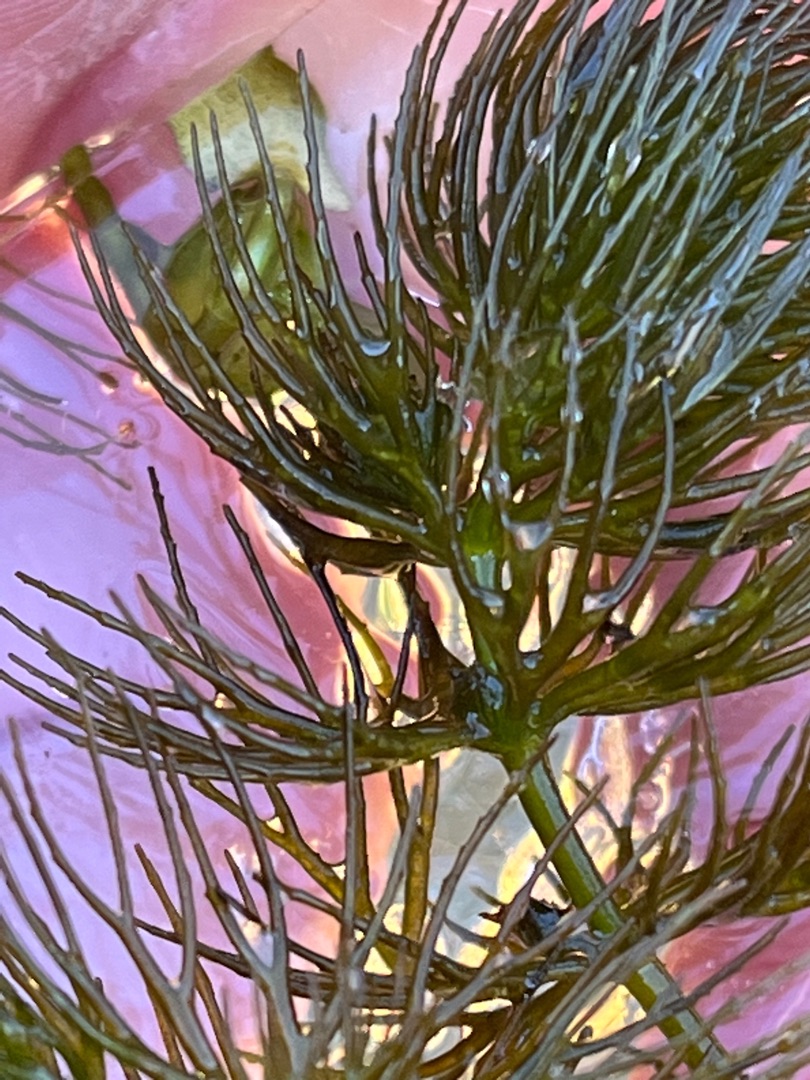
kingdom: Plantae
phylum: Tracheophyta
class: Magnoliopsida
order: Ceratophyllales
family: Ceratophyllaceae
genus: Ceratophyllum
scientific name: Ceratophyllum submersum
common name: Tornløs hornblad
